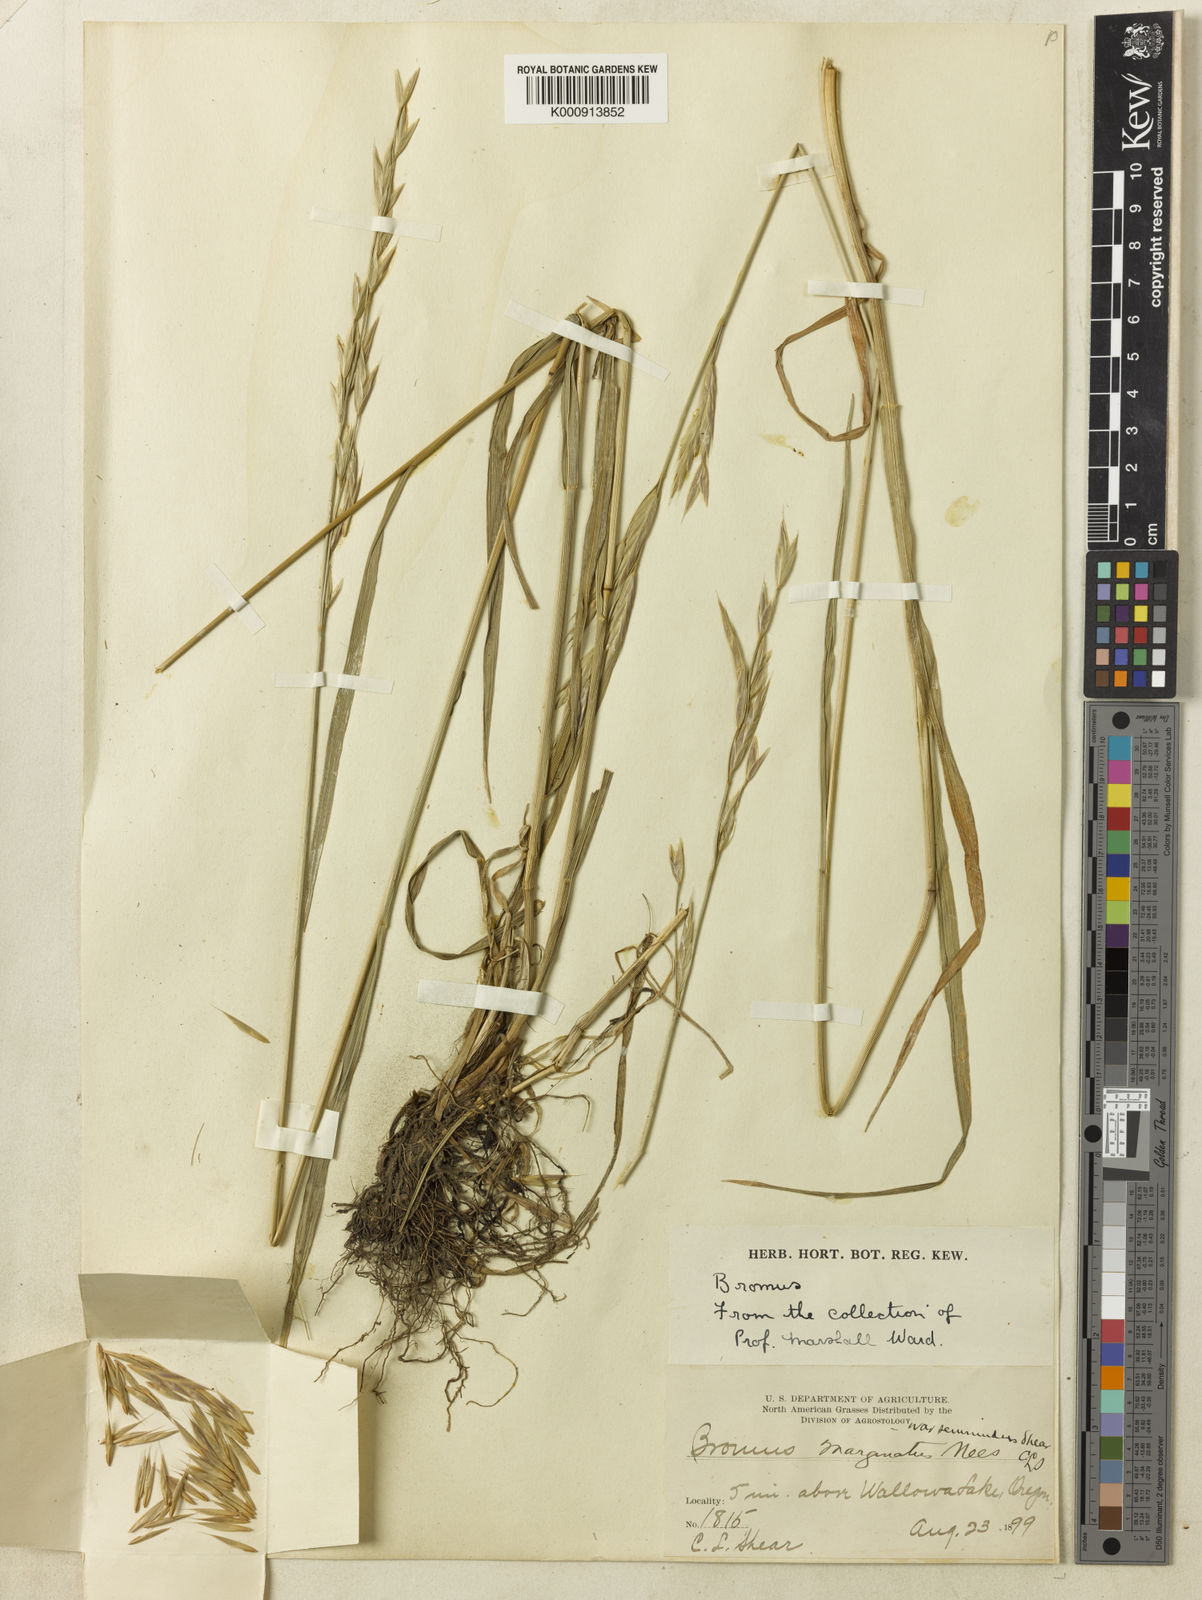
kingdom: Plantae
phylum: Tracheophyta
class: Liliopsida
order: Poales
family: Poaceae
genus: Bromus
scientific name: Bromus marginatus
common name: Western brome
